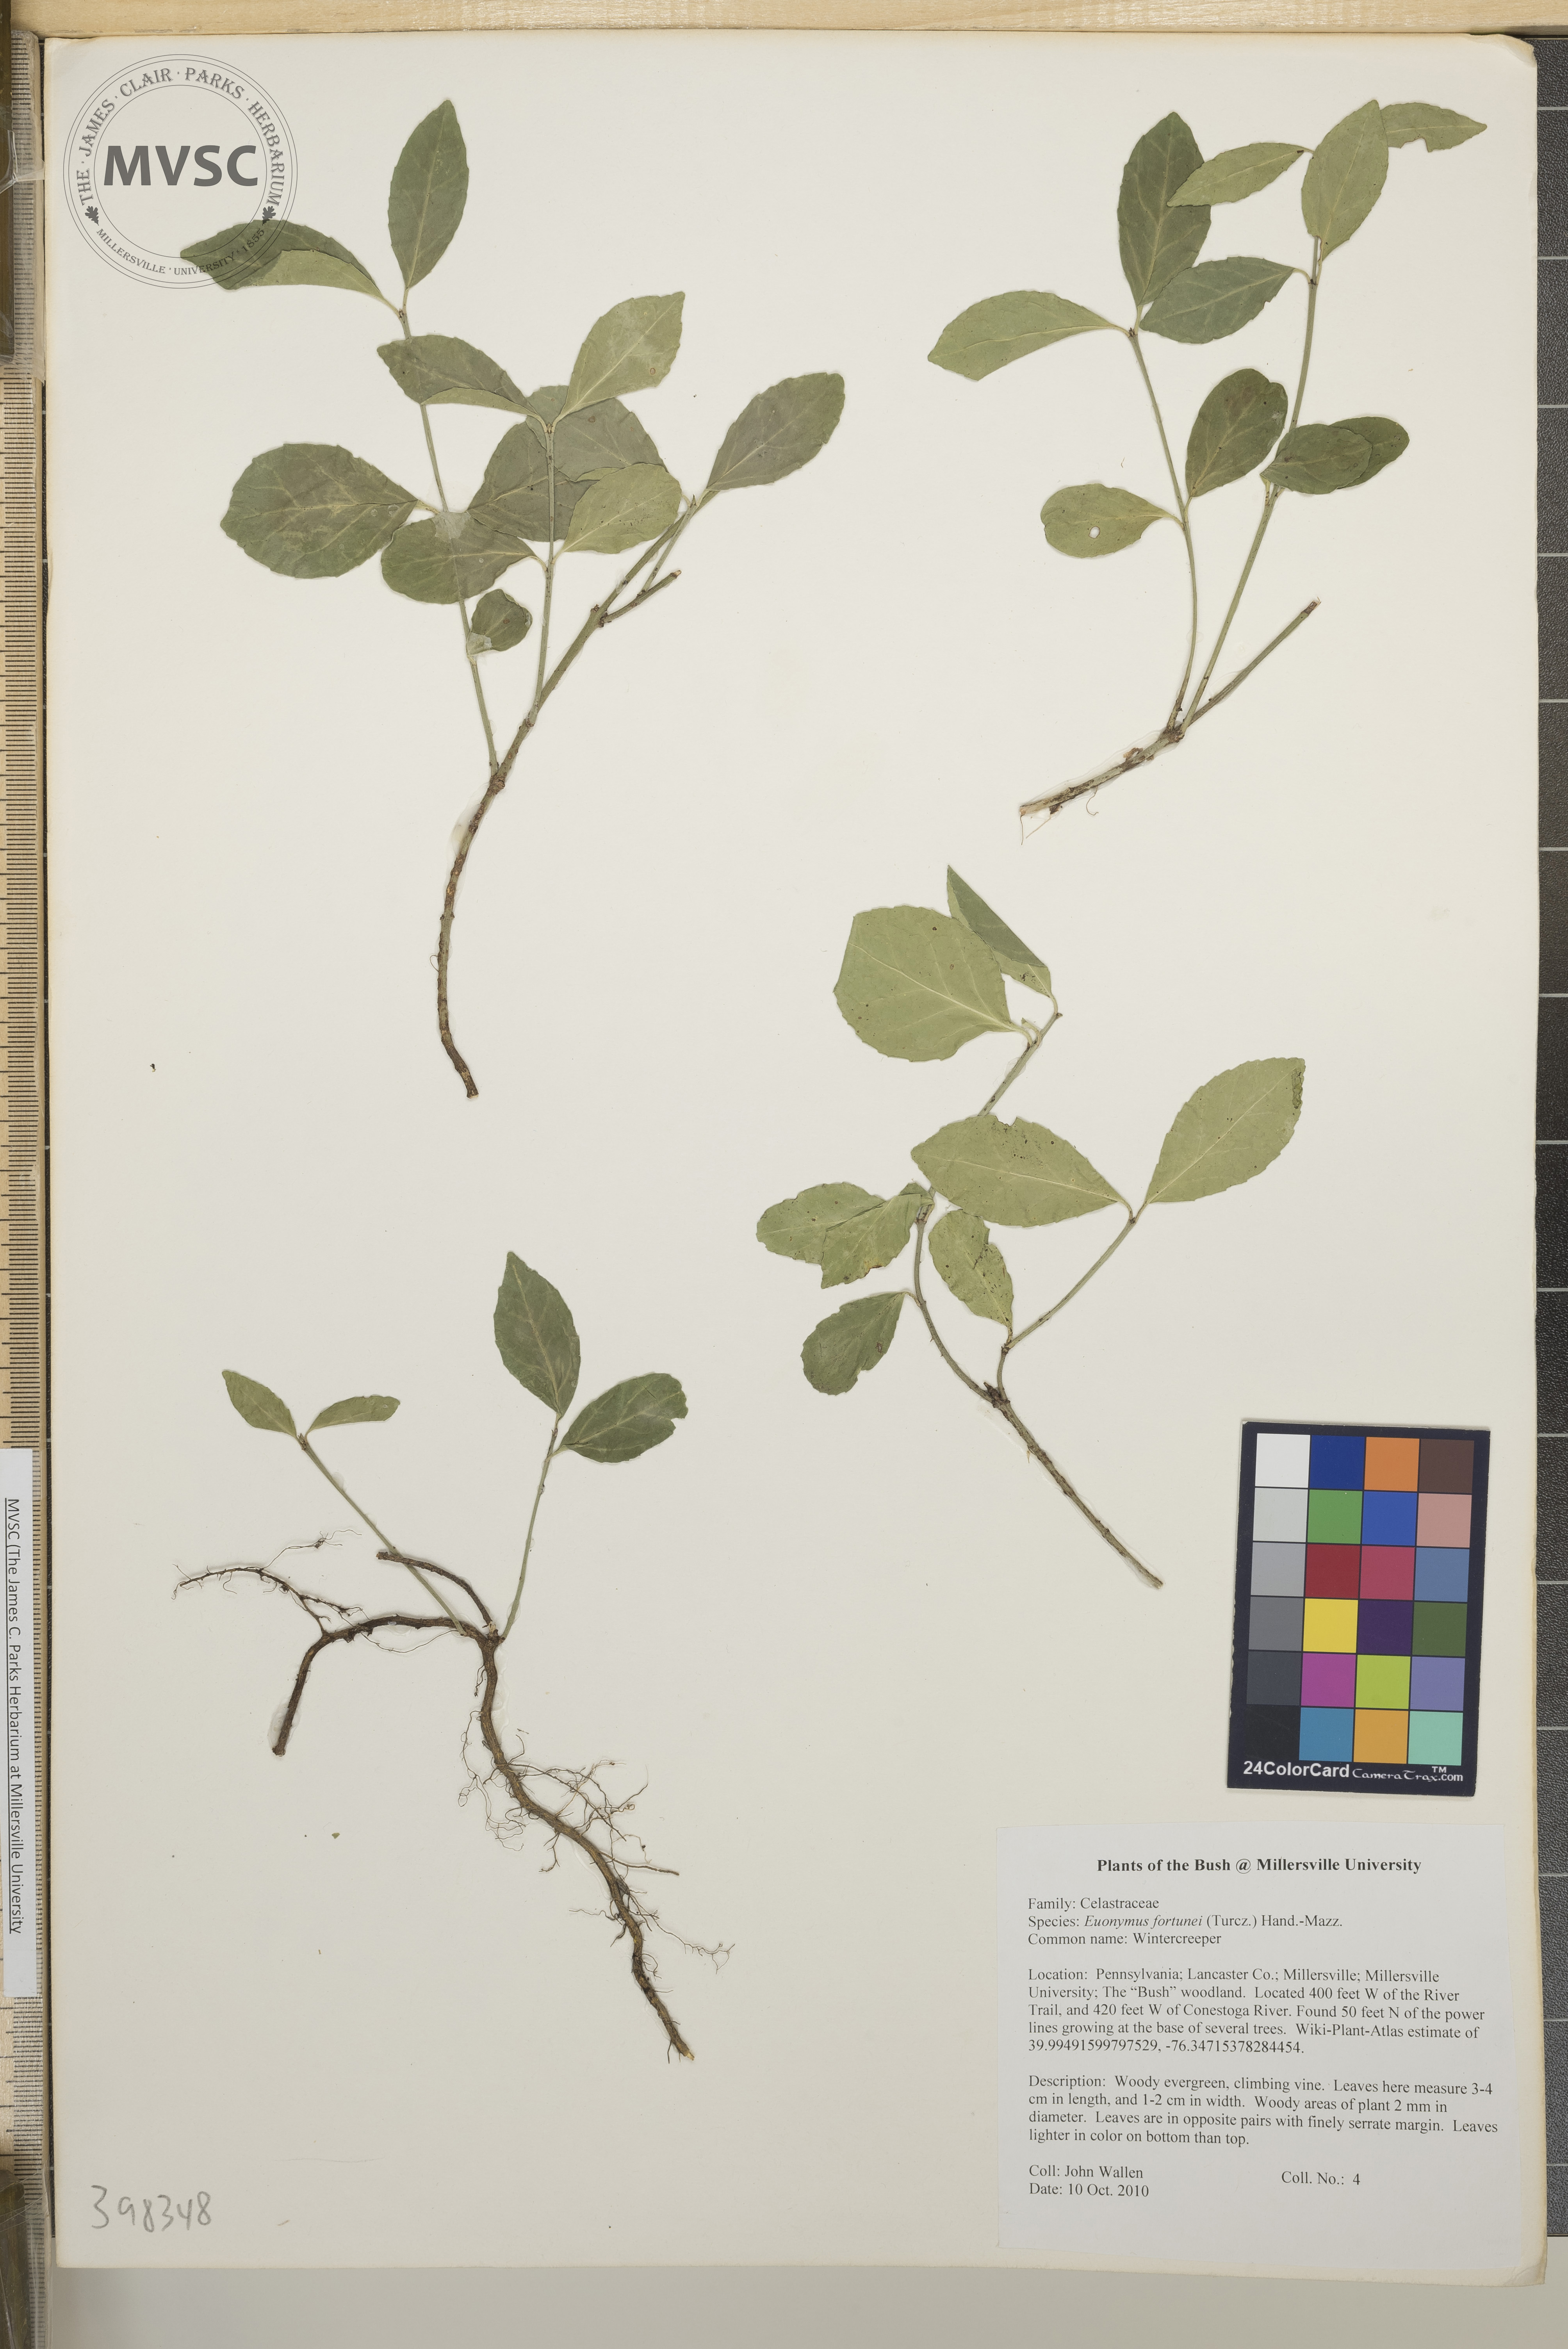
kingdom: Plantae
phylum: Tracheophyta
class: Magnoliopsida
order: Celastrales
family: Celastraceae
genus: Euonymus
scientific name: Euonymus fortunei
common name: Wintercreeper
